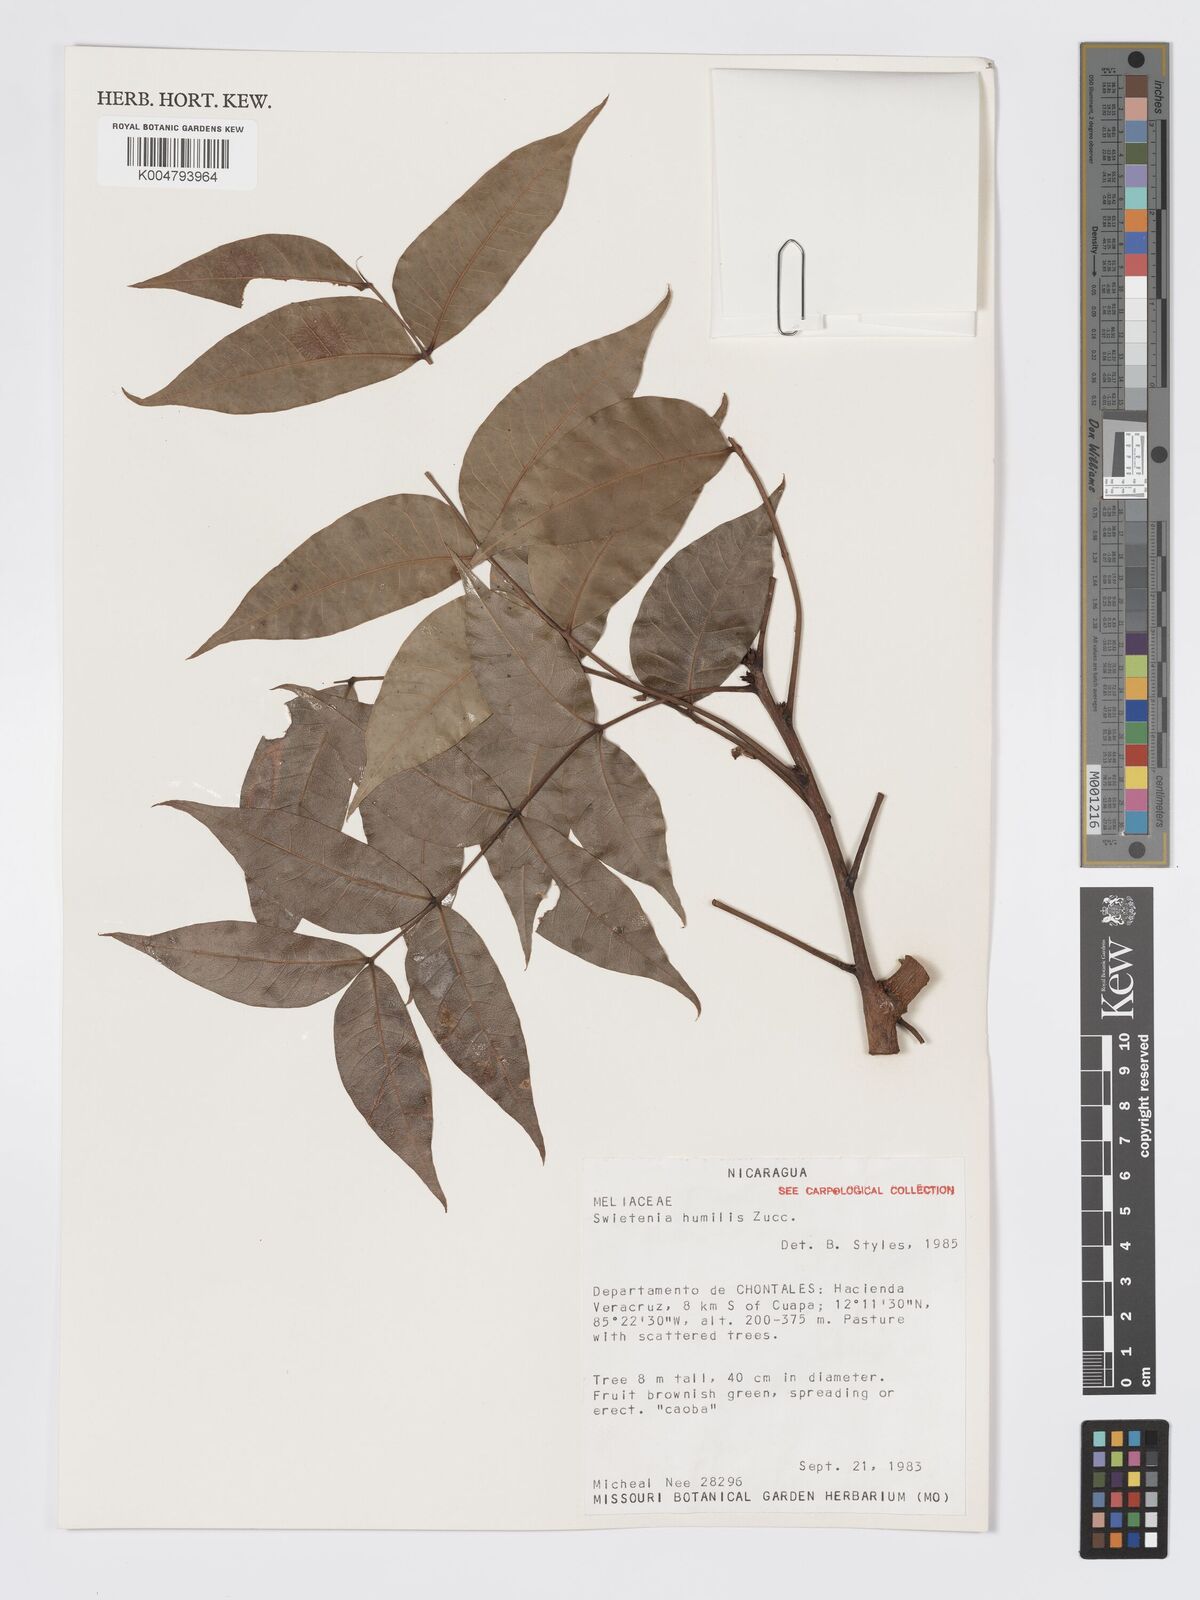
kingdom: Plantae
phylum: Tracheophyta
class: Magnoliopsida
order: Sapindales
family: Meliaceae
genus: Swietenia
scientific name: Swietenia humilis
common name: Pacific coast mahogany
